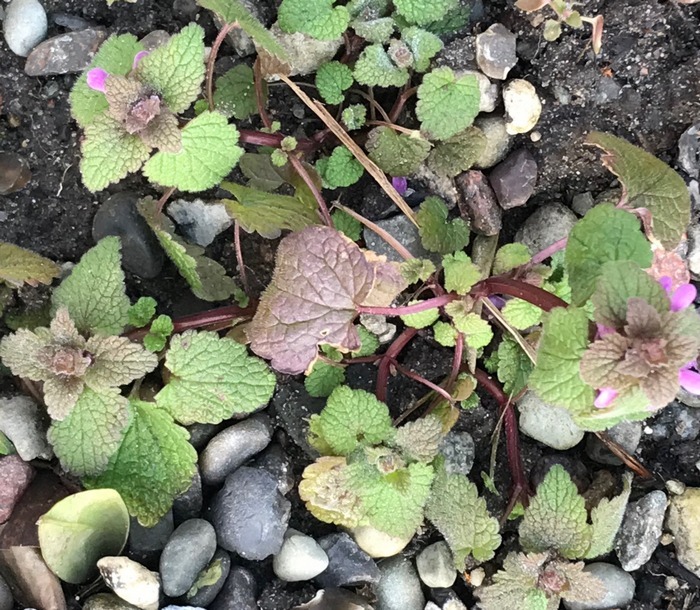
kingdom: Plantae
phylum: Tracheophyta
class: Magnoliopsida
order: Lamiales
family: Lamiaceae
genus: Lamium
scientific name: Lamium purpureum
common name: Rød tvetand
